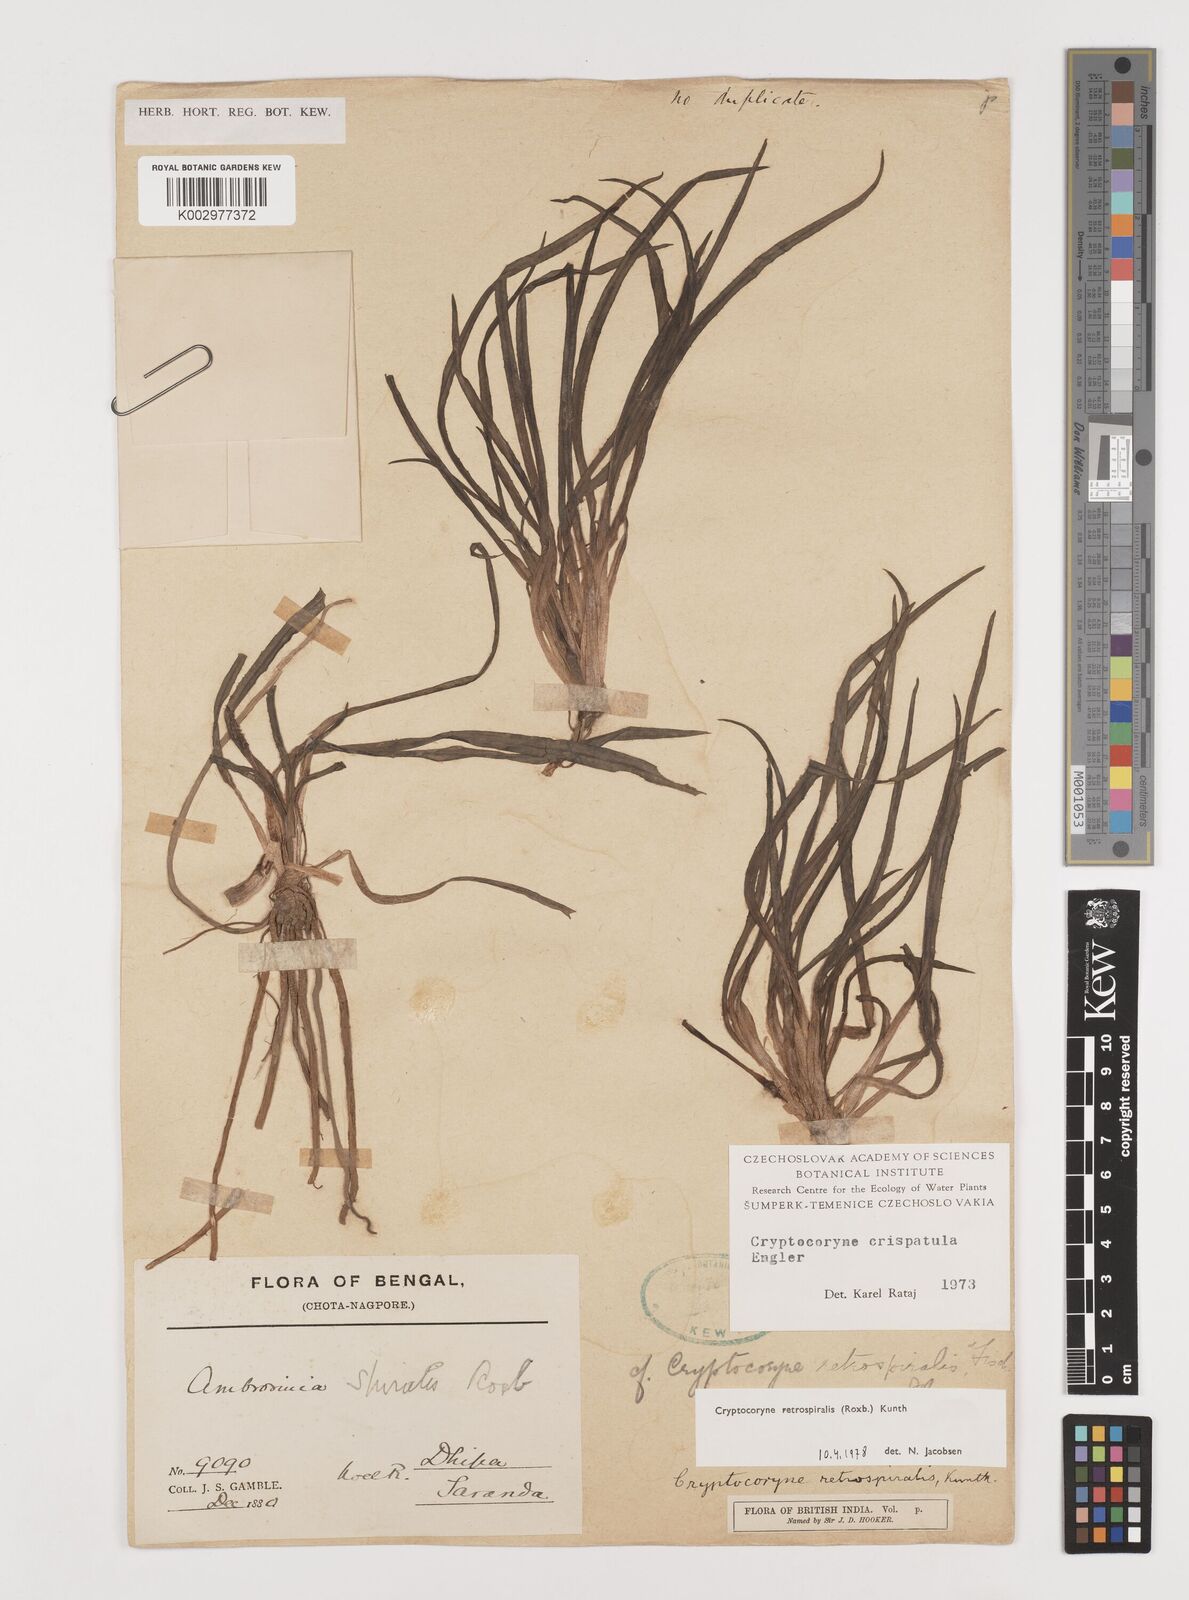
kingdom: Plantae
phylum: Tracheophyta
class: Liliopsida
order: Alismatales
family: Araceae
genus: Cryptocoryne
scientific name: Cryptocoryne retrospiralis
